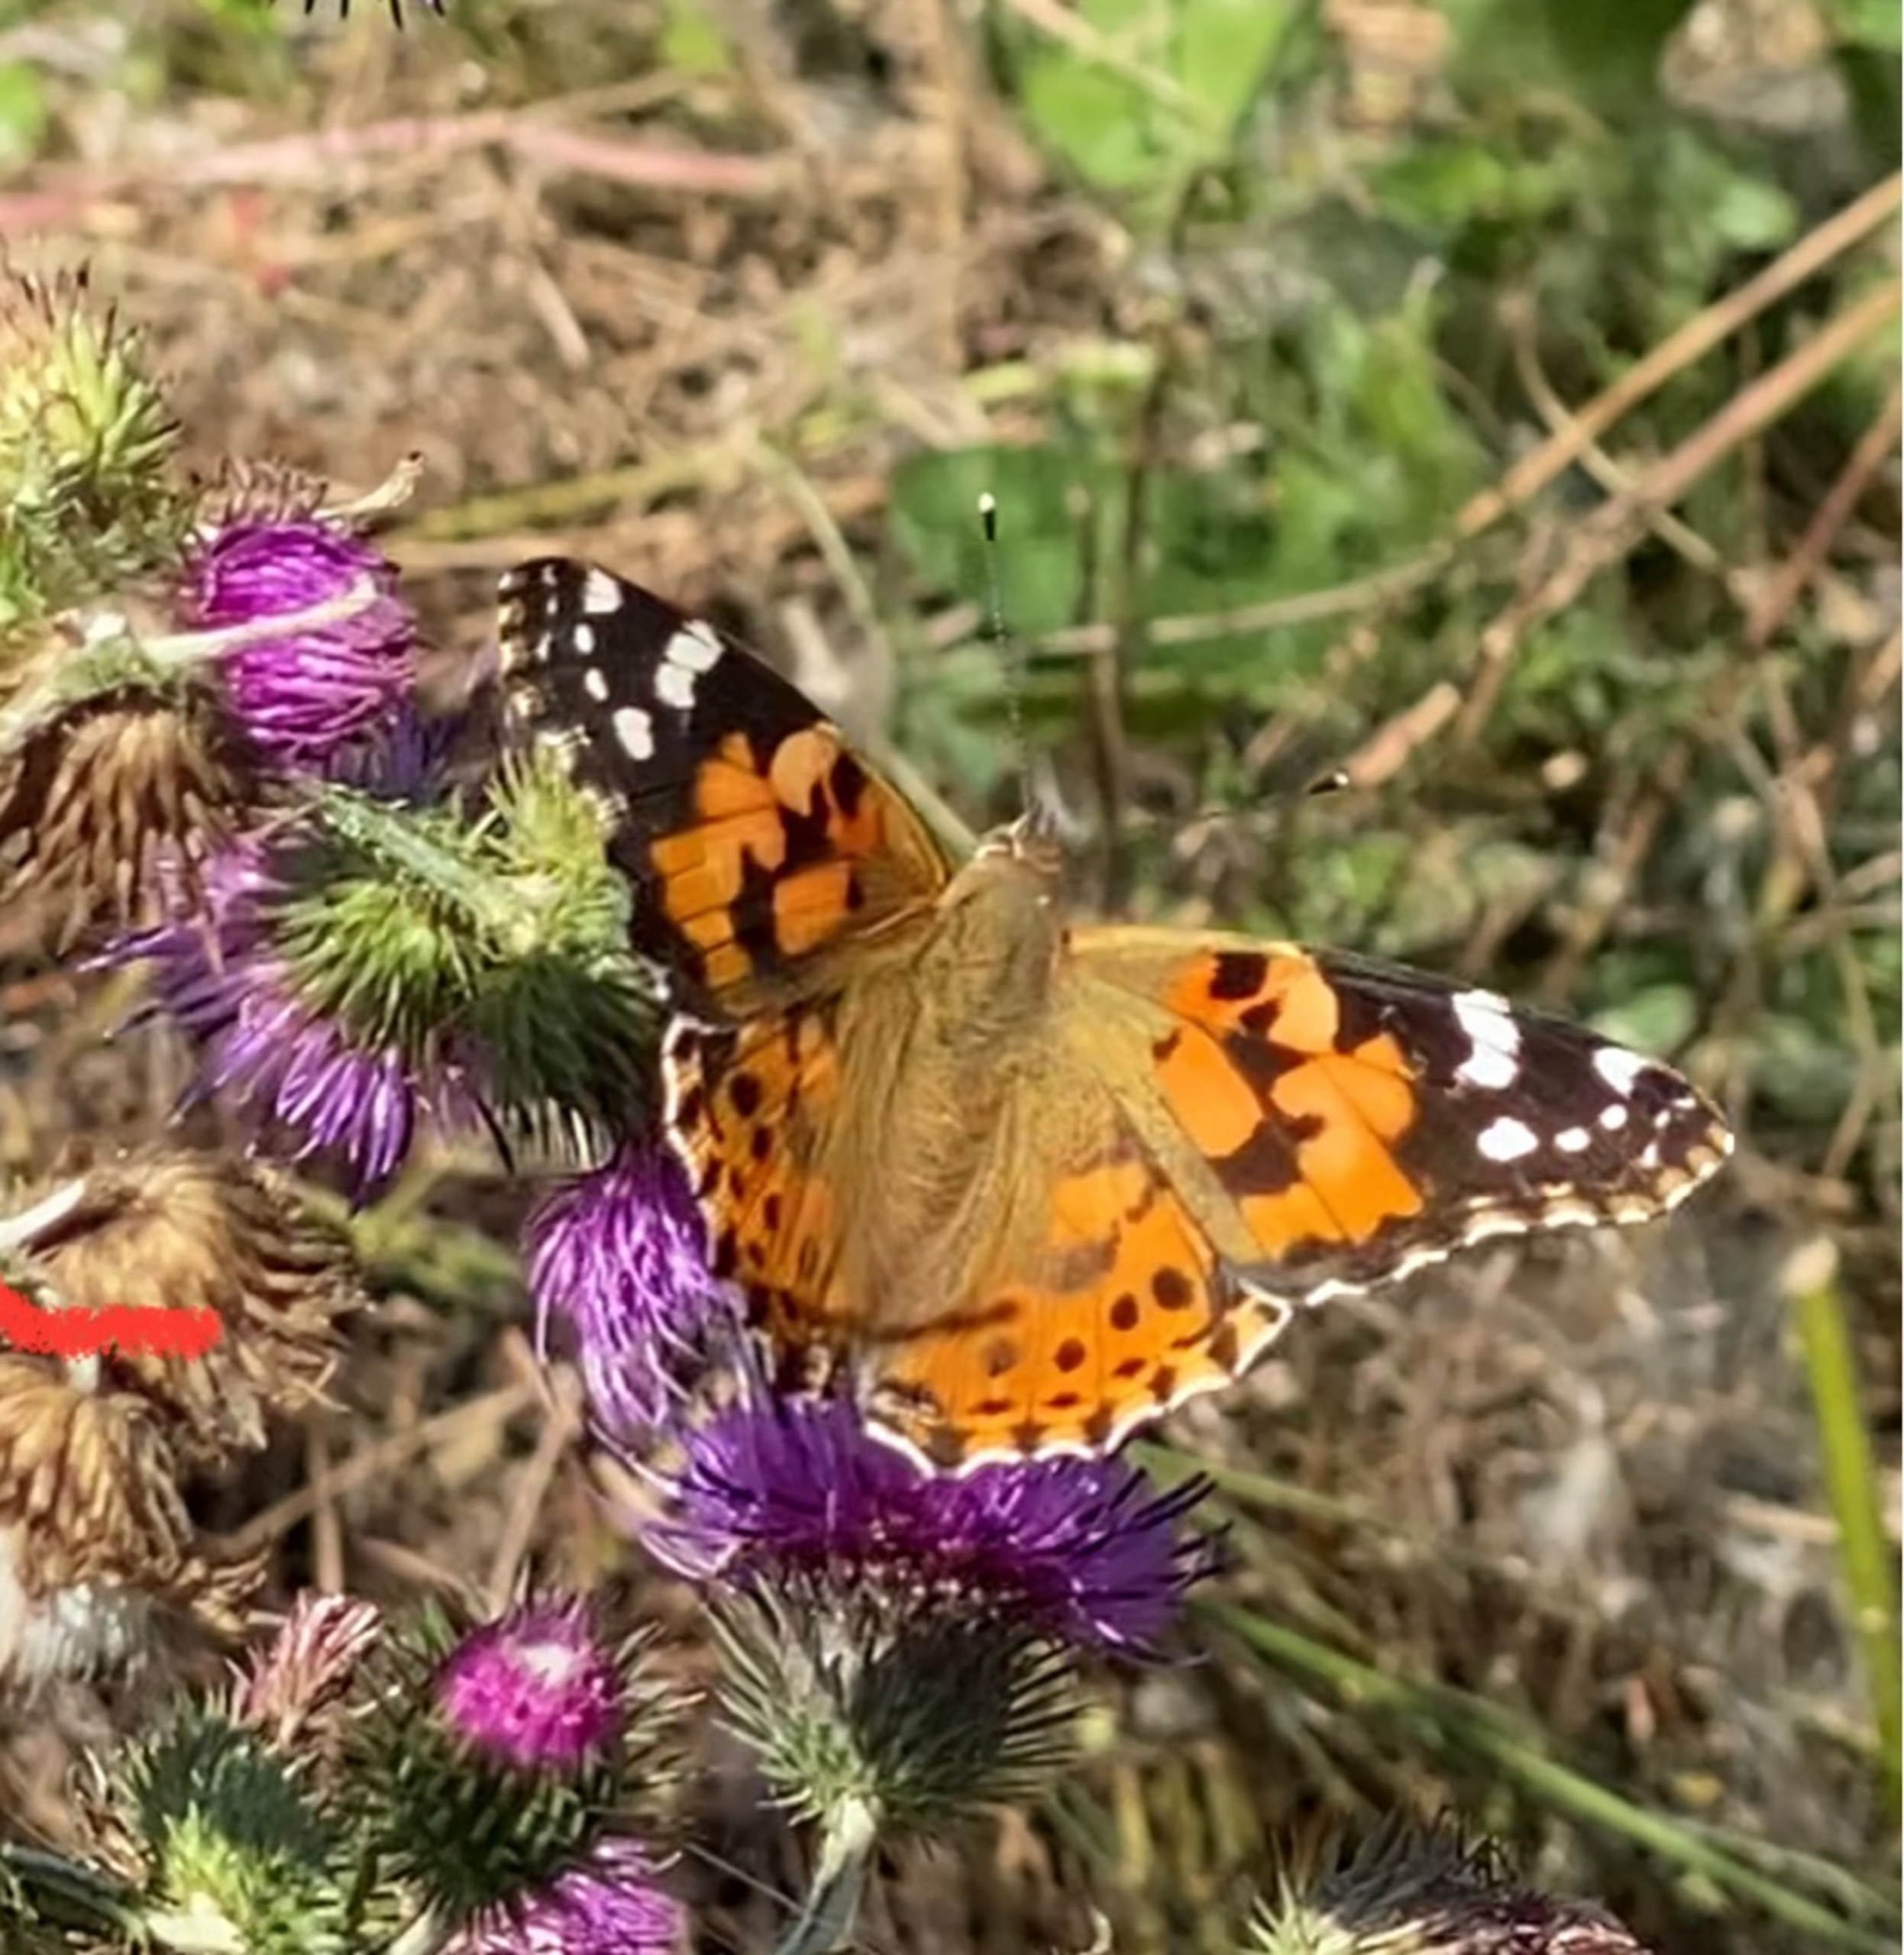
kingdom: Animalia
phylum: Arthropoda
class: Insecta
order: Lepidoptera
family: Nymphalidae
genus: Vanessa
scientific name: Vanessa cardui
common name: Tidselsommerfugl
